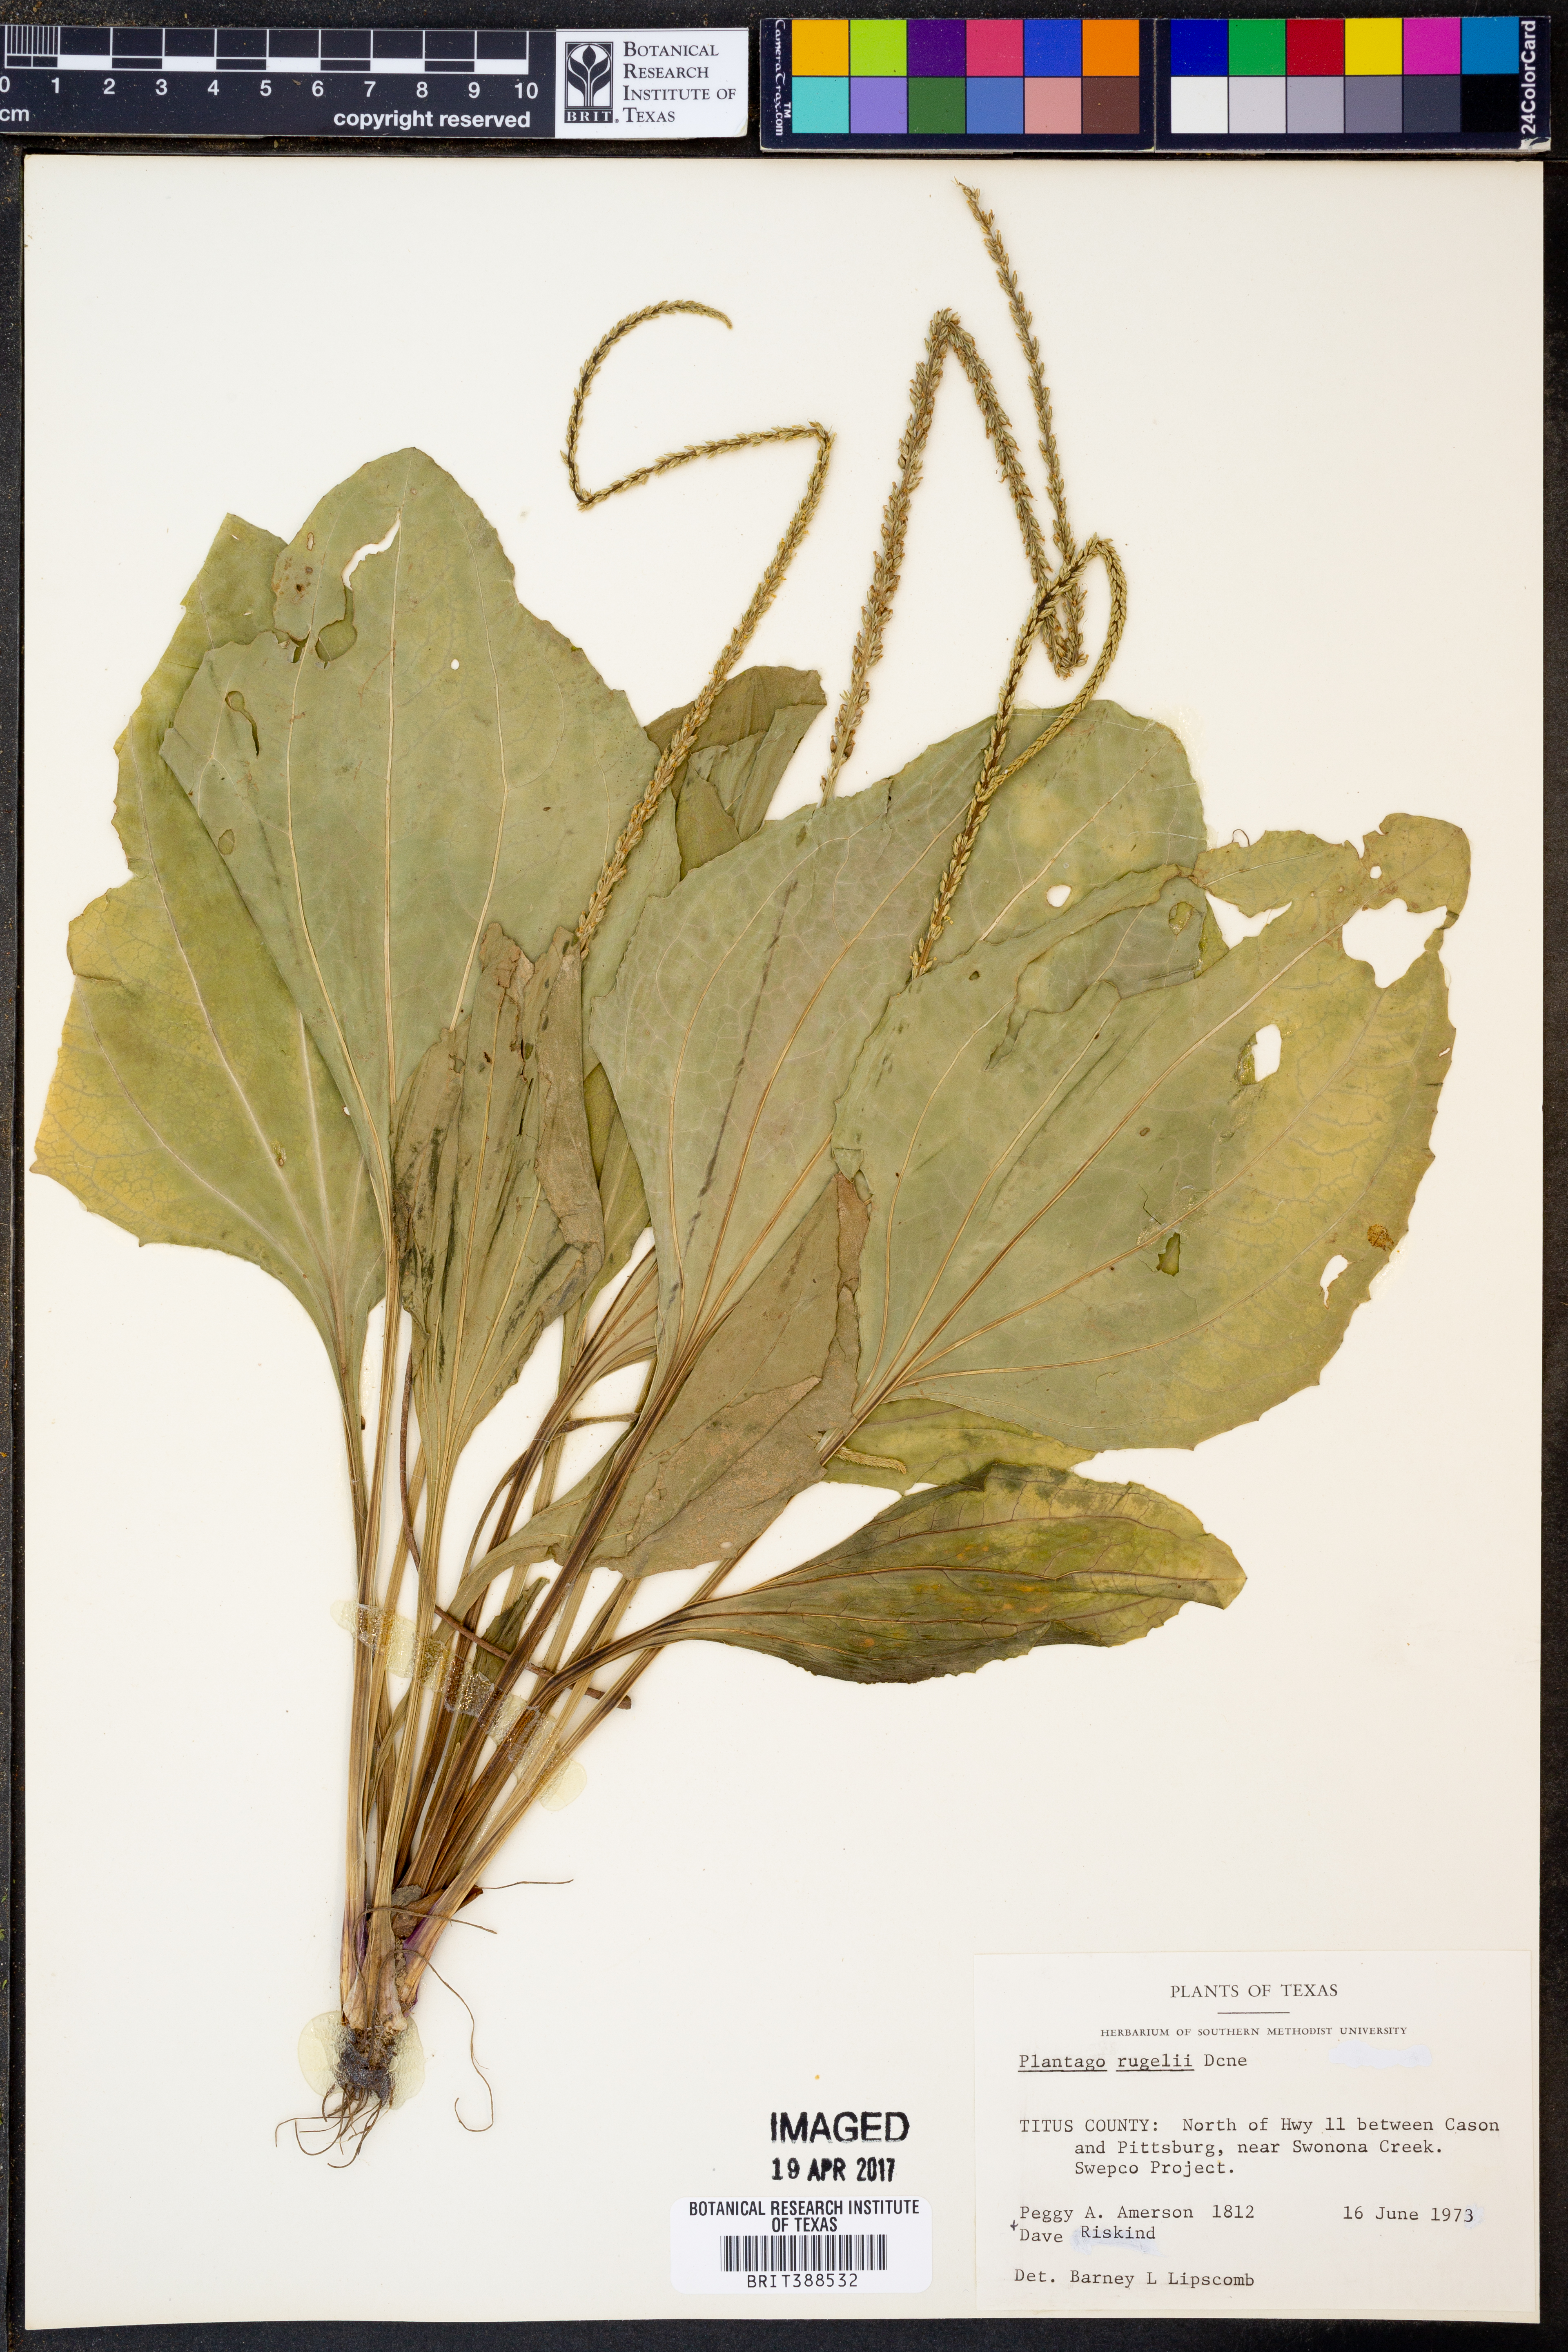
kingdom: Plantae
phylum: Tracheophyta
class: Magnoliopsida
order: Lamiales
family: Plantaginaceae
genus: Plantago
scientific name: Plantago rugelii
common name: American plantain
